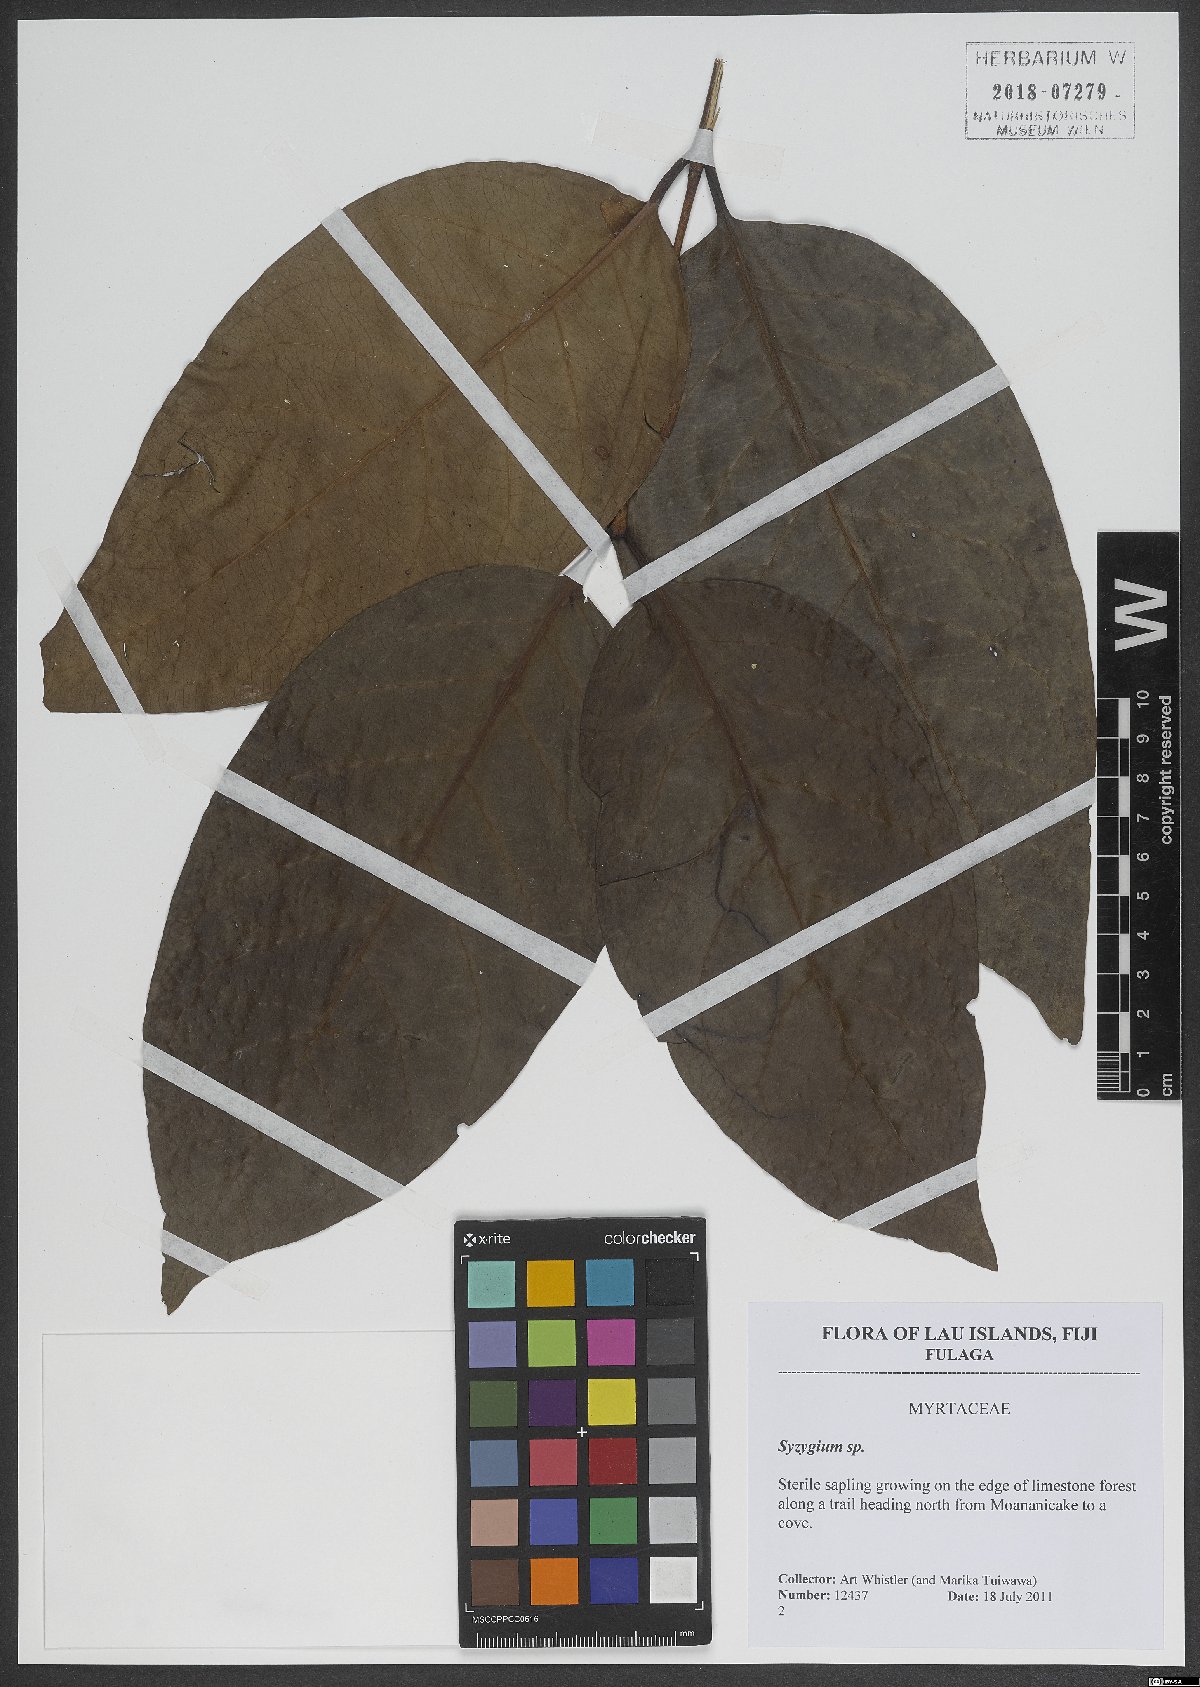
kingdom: Plantae
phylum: Tracheophyta
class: Magnoliopsida
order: Myrtales
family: Myrtaceae
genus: Syzygium
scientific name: Syzygium
